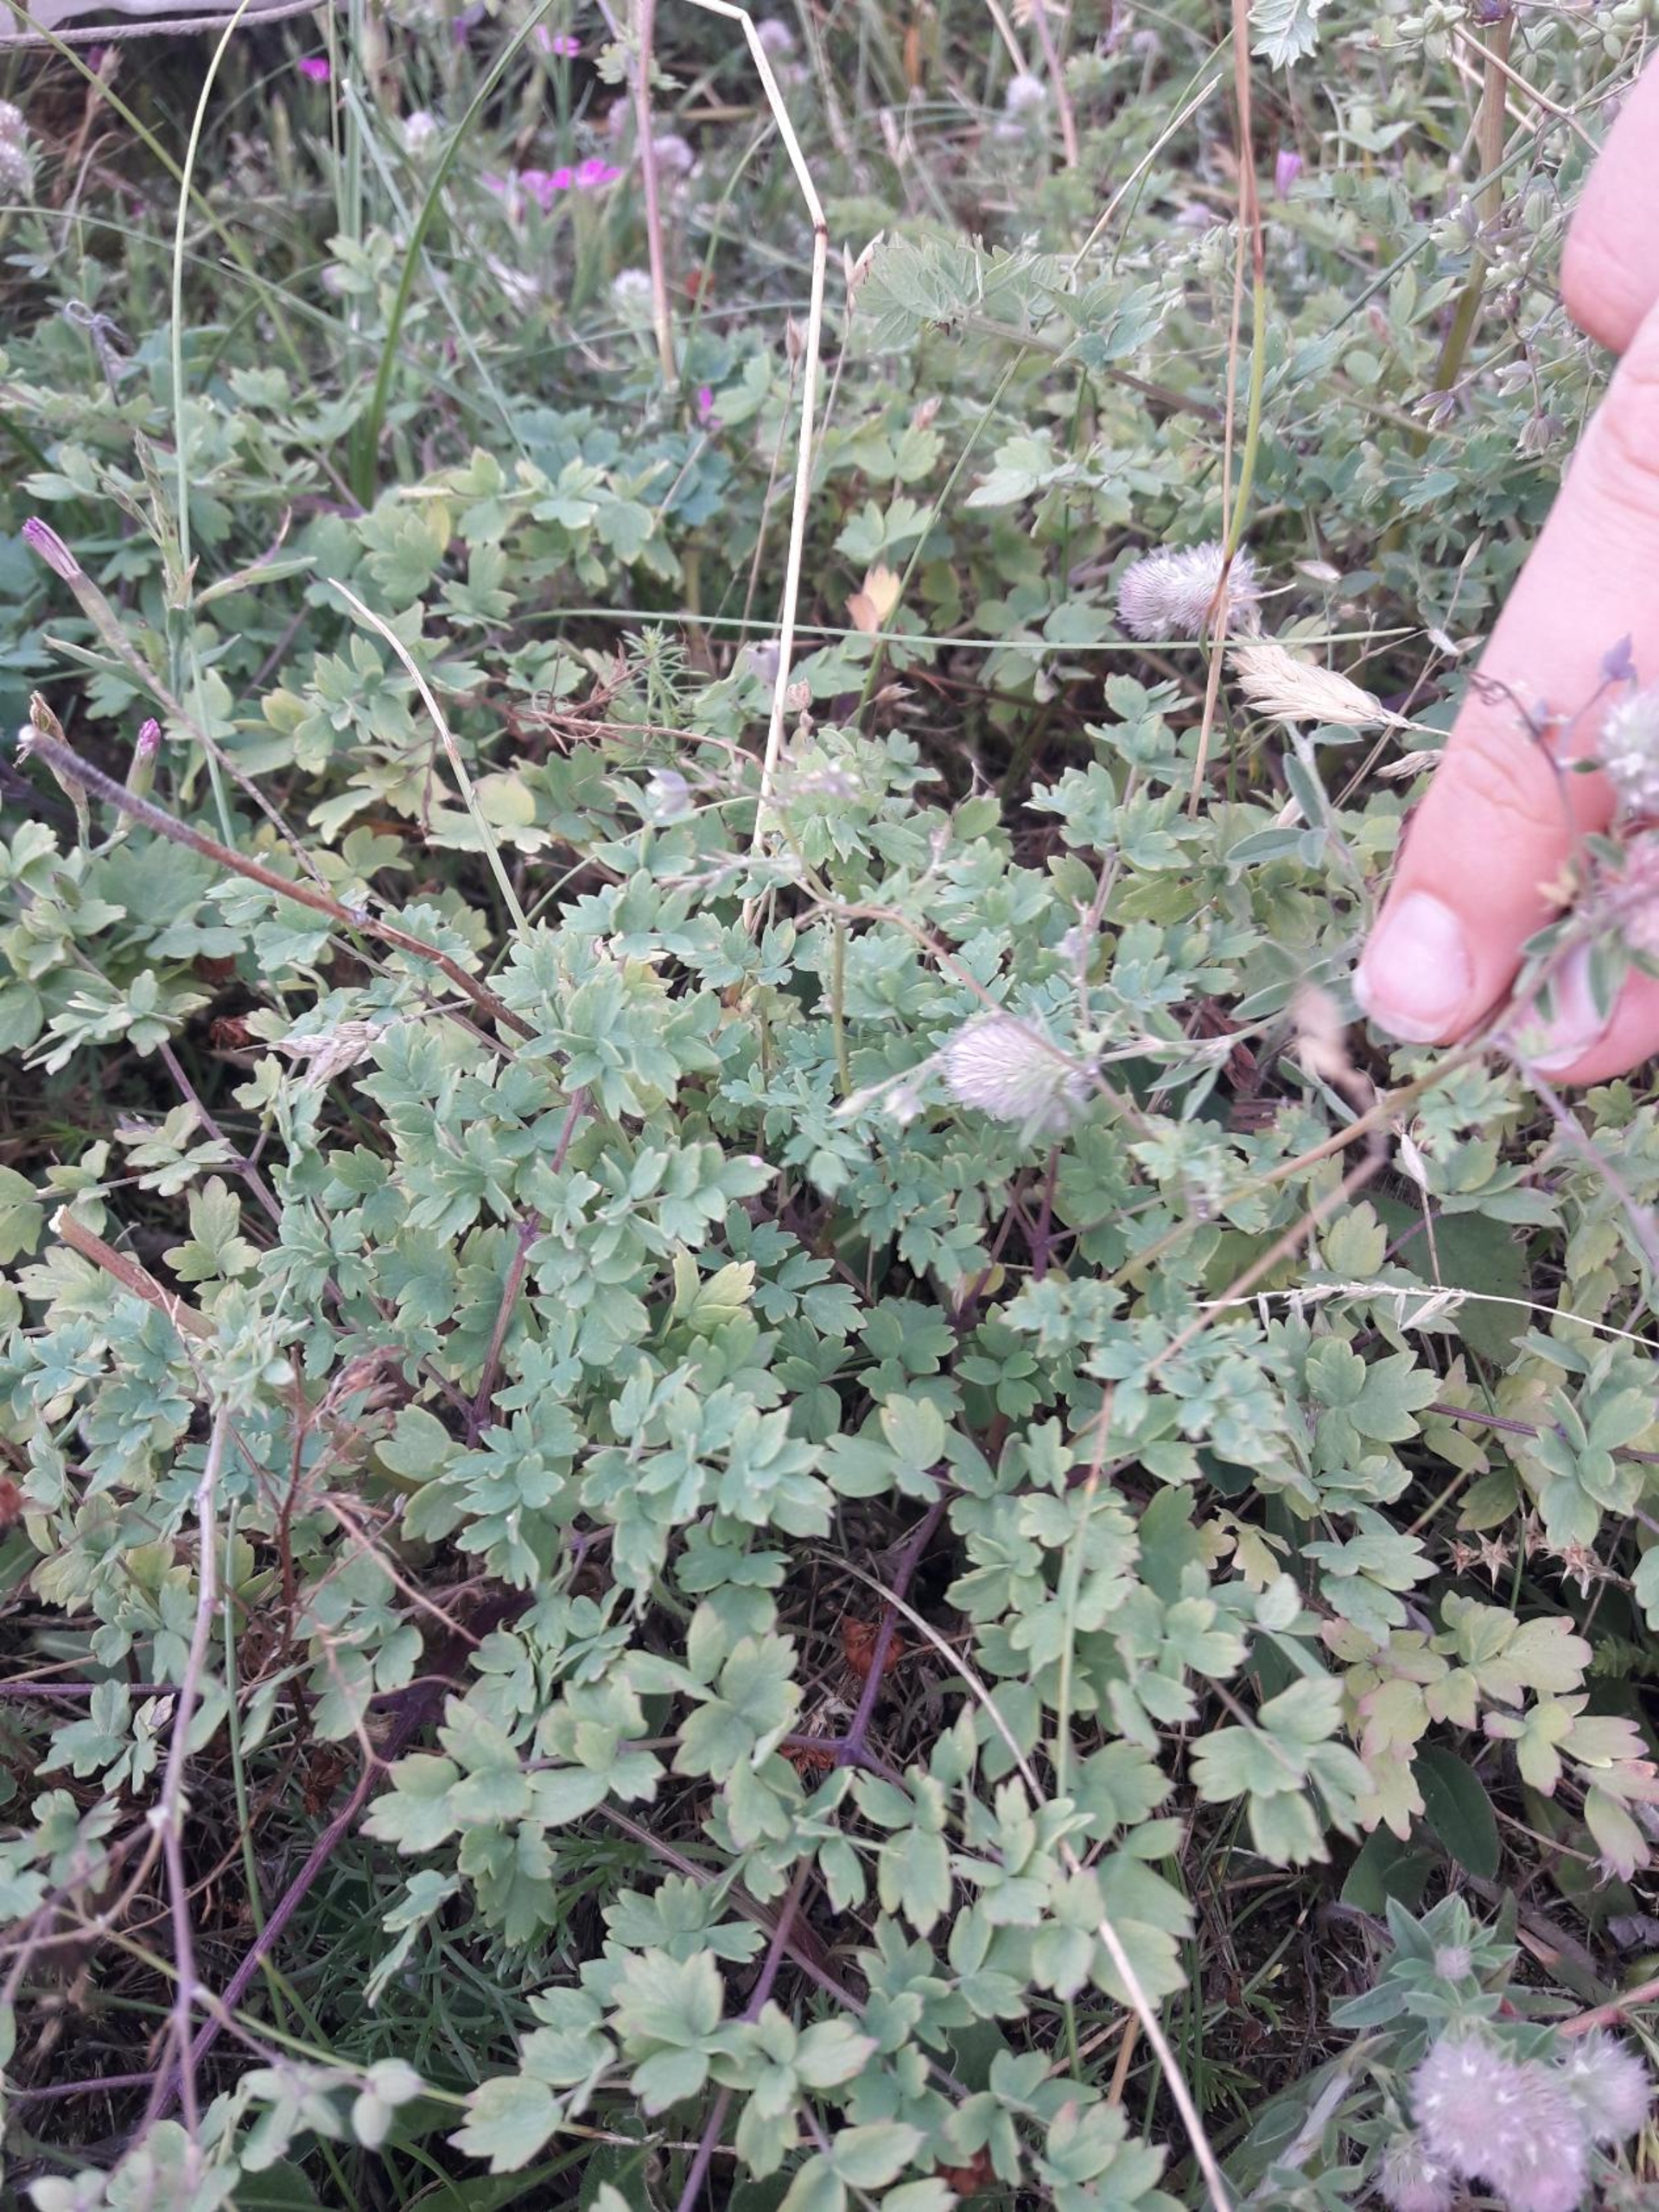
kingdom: Plantae
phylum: Tracheophyta
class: Magnoliopsida
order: Ranunculales
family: Ranunculaceae
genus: Thalictrum
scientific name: Thalictrum minus
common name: Liden frøstjerne
